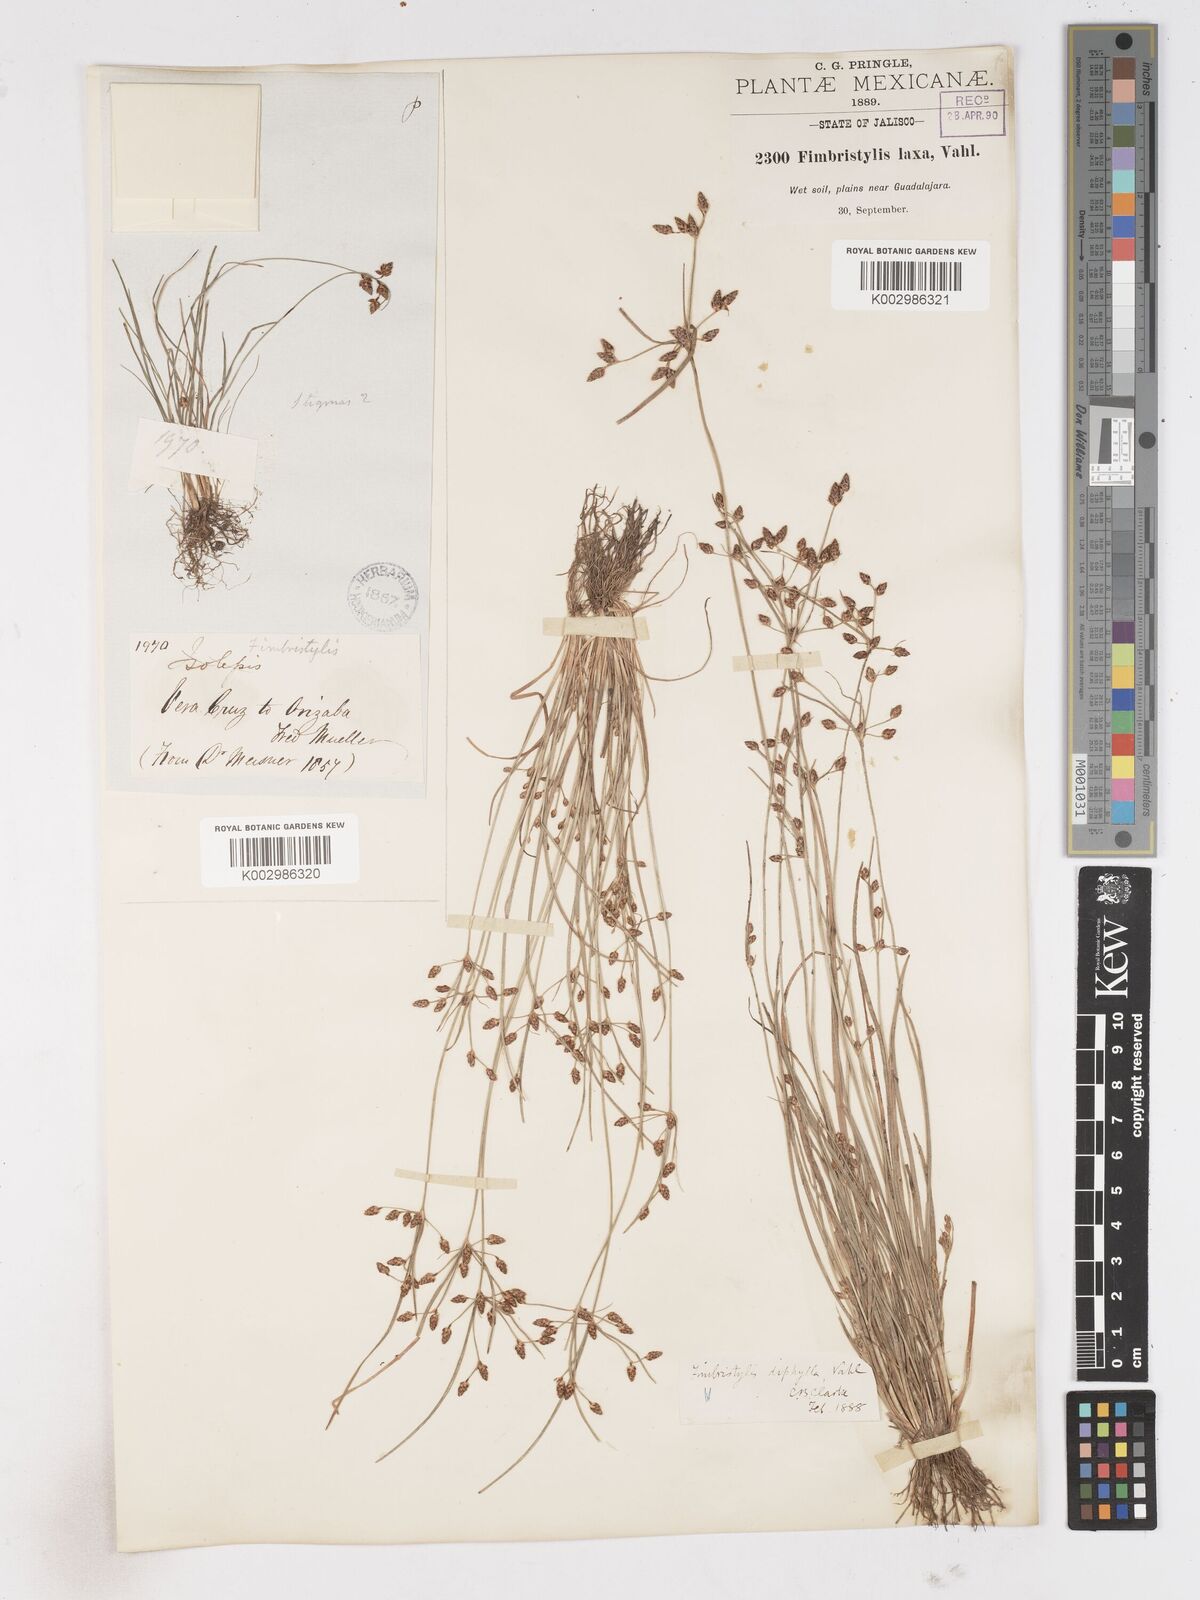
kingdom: Plantae
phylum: Tracheophyta
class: Liliopsida
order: Poales
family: Cyperaceae
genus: Fimbristylis
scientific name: Fimbristylis dichotoma
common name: Forked fimbry
